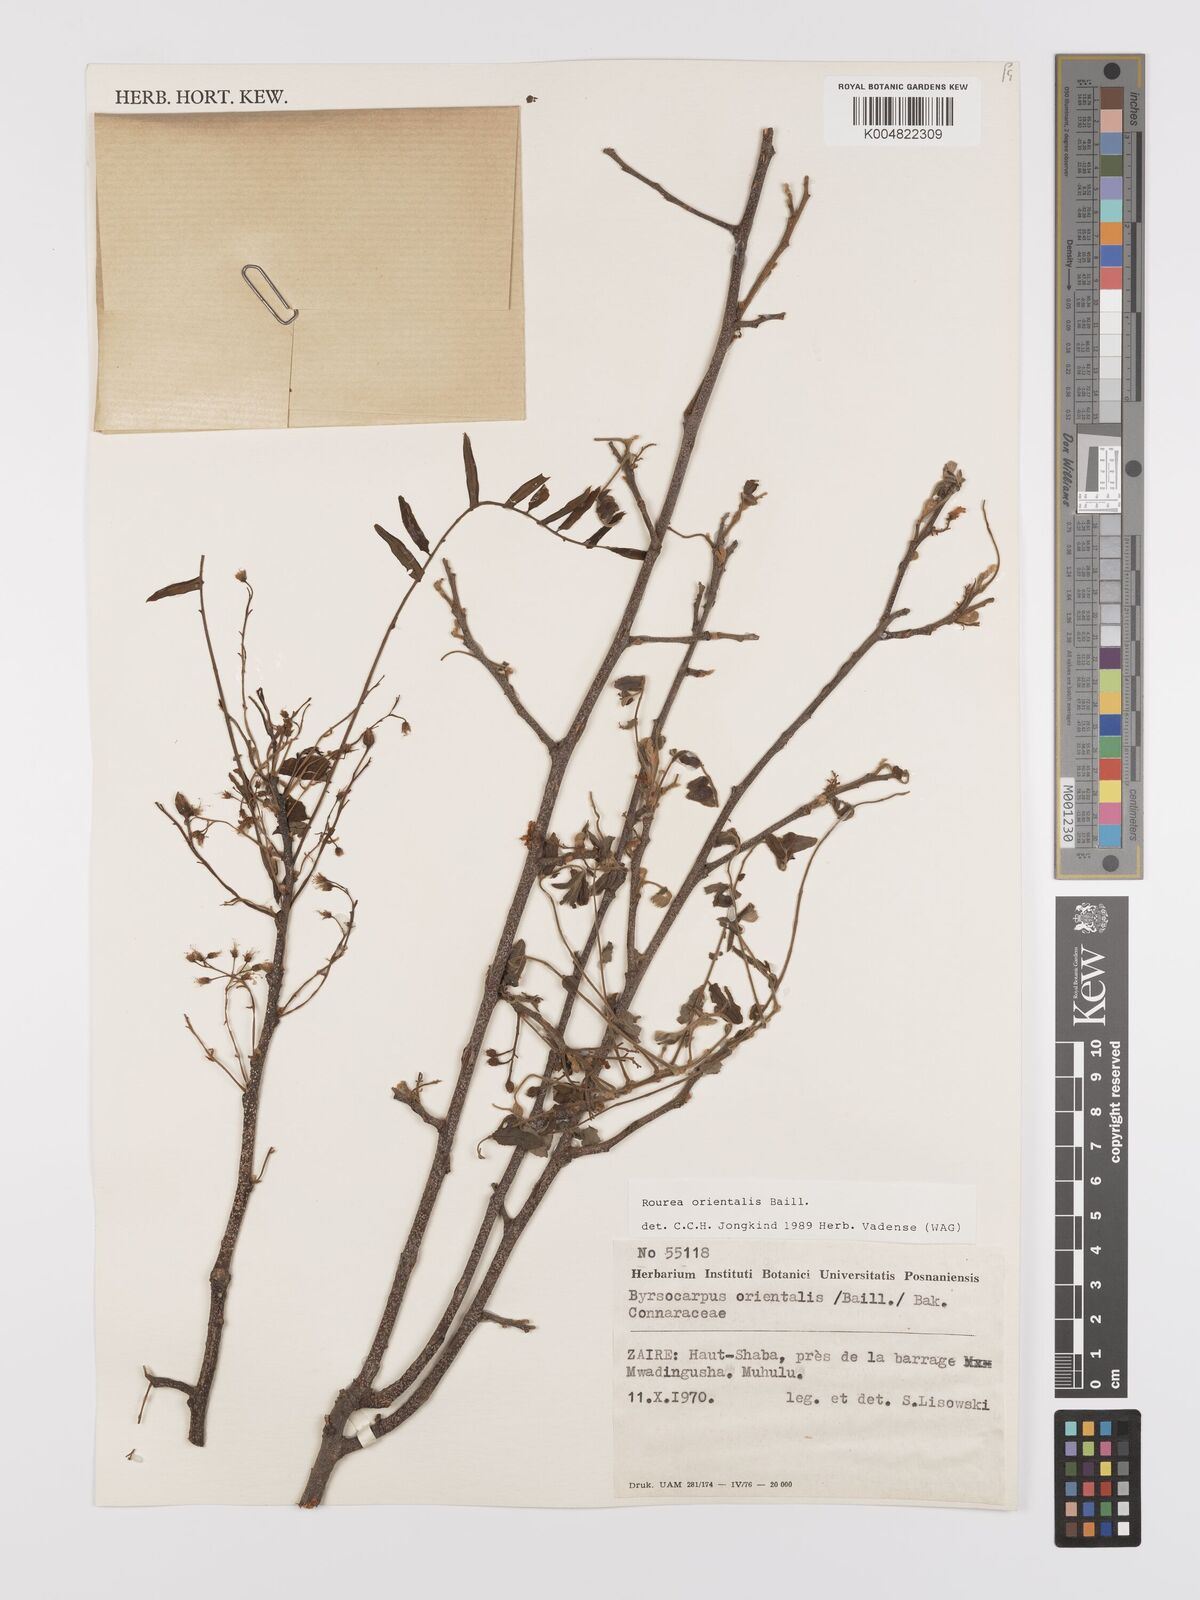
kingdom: Plantae
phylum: Tracheophyta
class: Magnoliopsida
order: Oxalidales
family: Connaraceae
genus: Rourea
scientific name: Rourea orientalis
